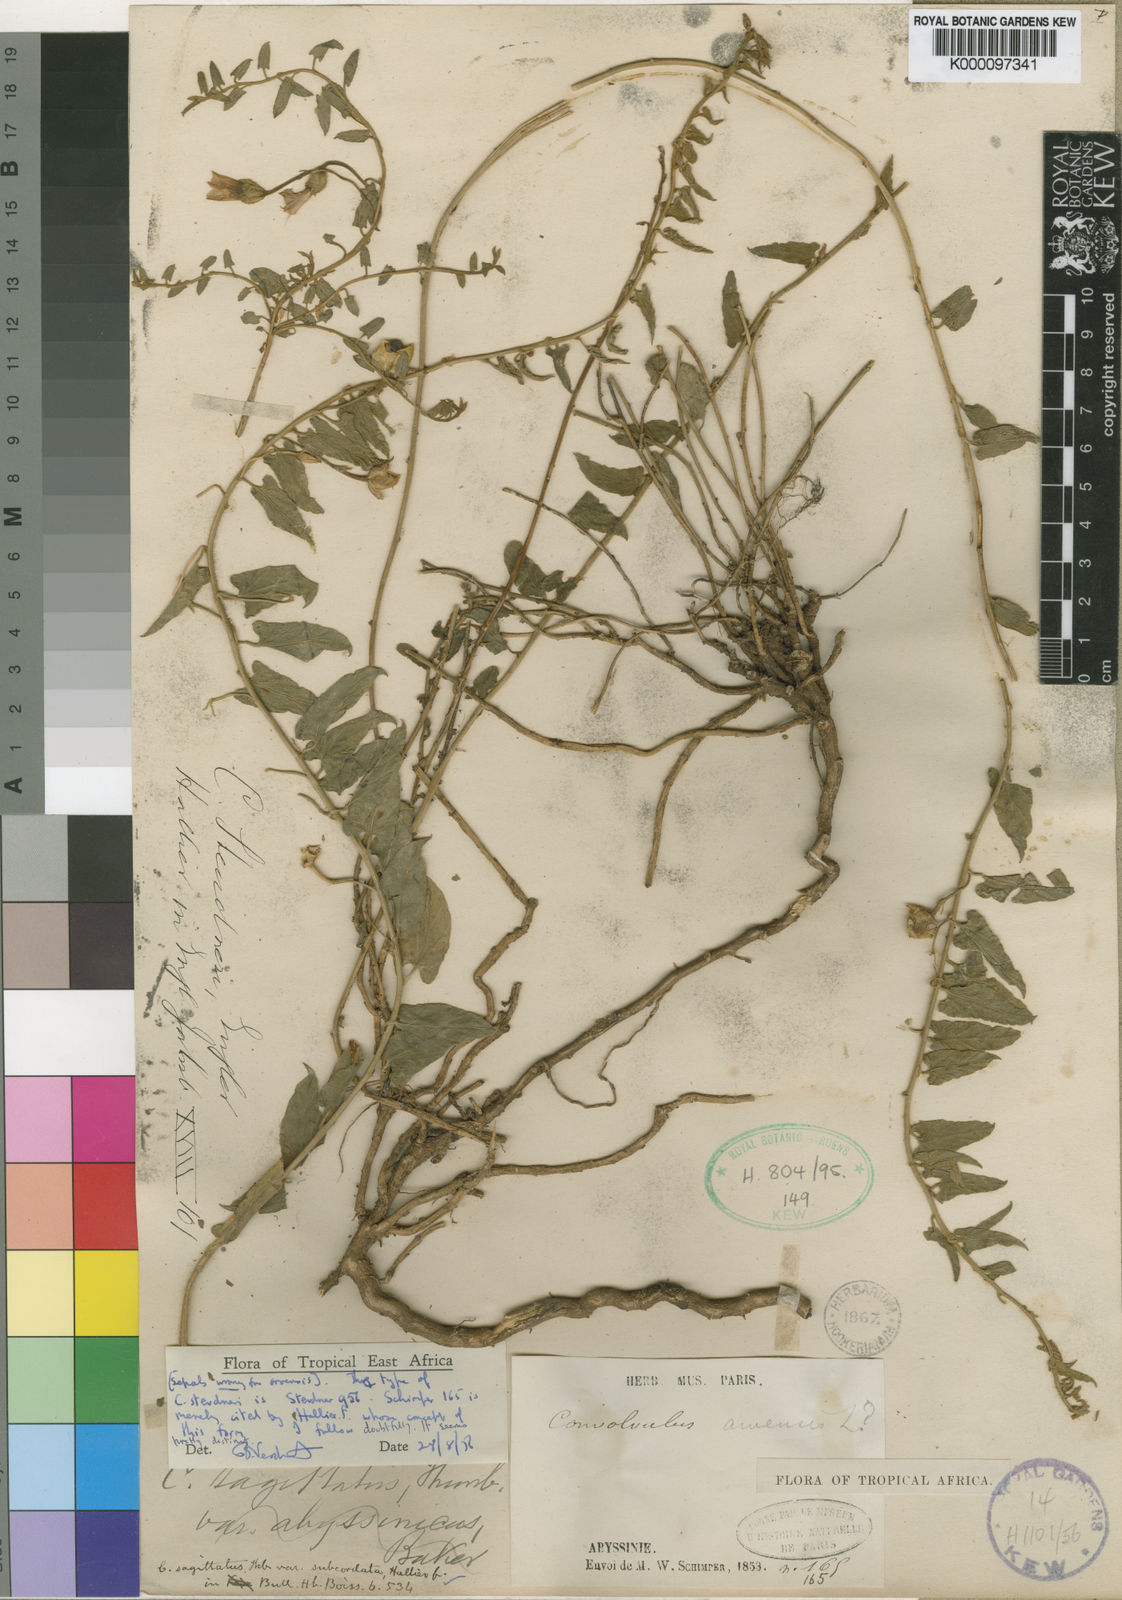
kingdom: Plantae
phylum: Tracheophyta
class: Magnoliopsida
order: Solanales
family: Convolvulaceae
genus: Convolvulus
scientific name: Convolvulus sagittatus
